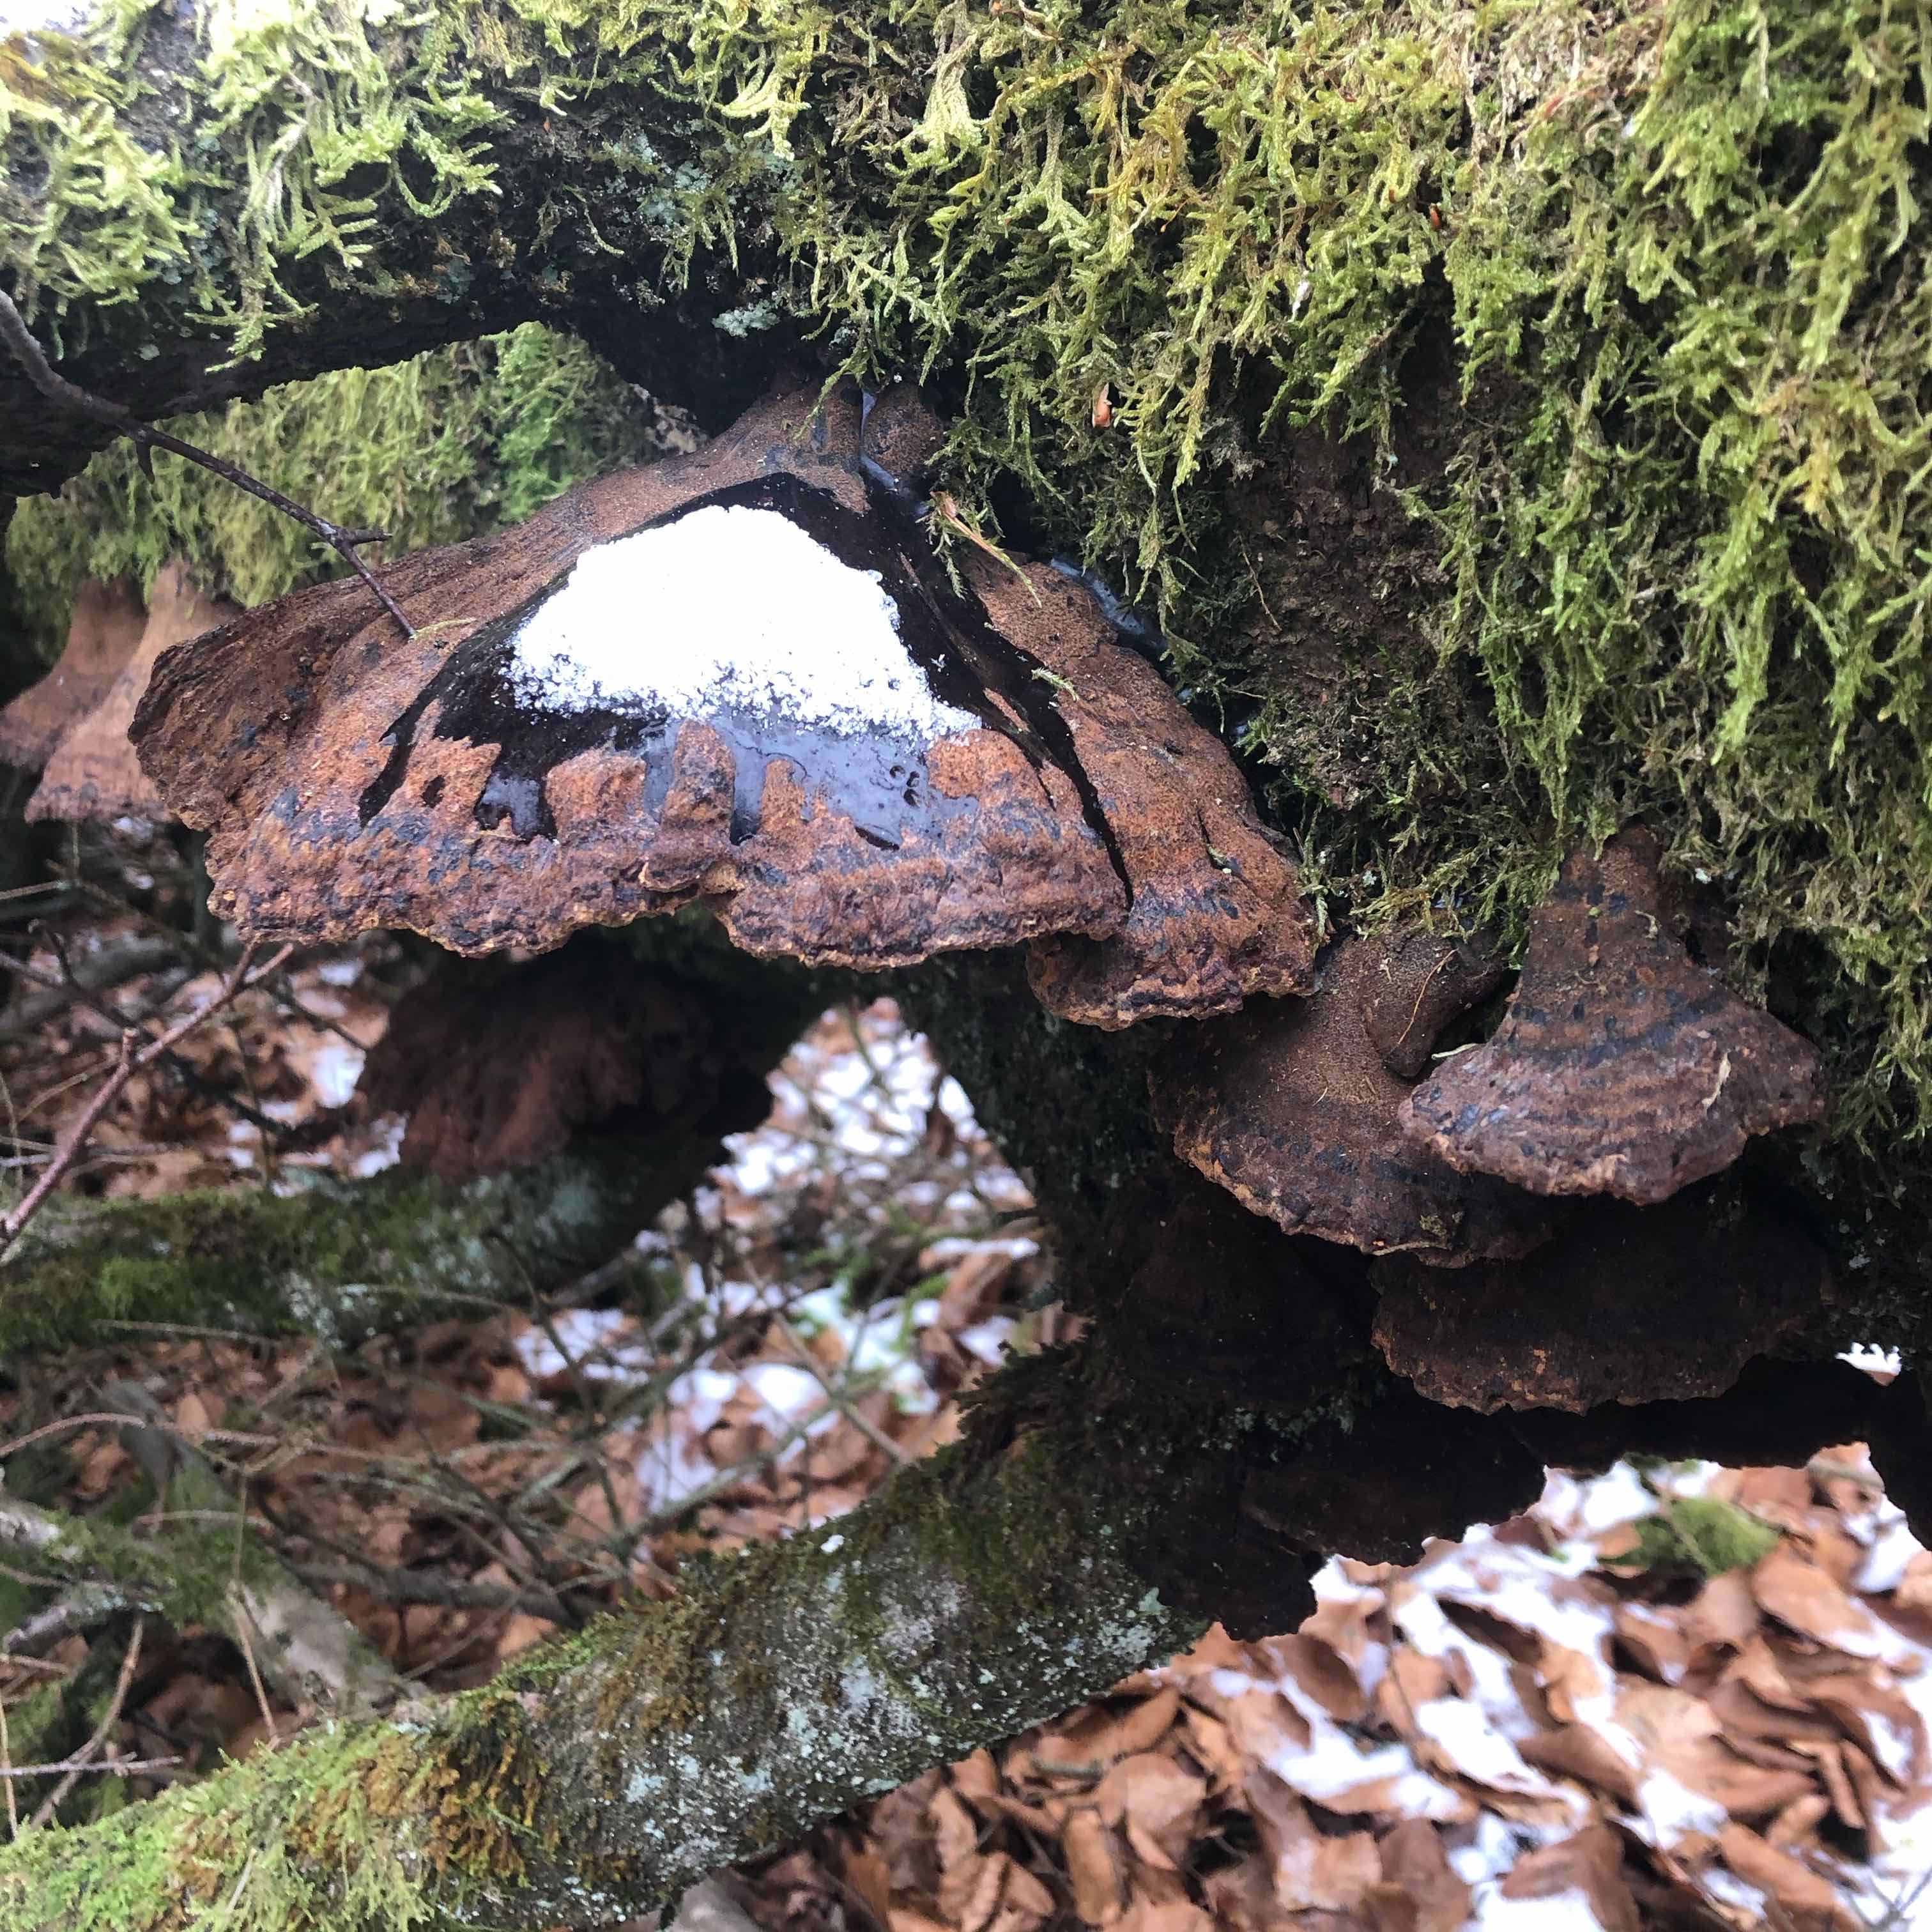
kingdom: Fungi
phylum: Basidiomycota
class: Agaricomycetes
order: Polyporales
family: Ischnodermataceae
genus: Ischnoderma
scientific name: Ischnoderma benzoinum
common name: gran-tjæreporesvamp
